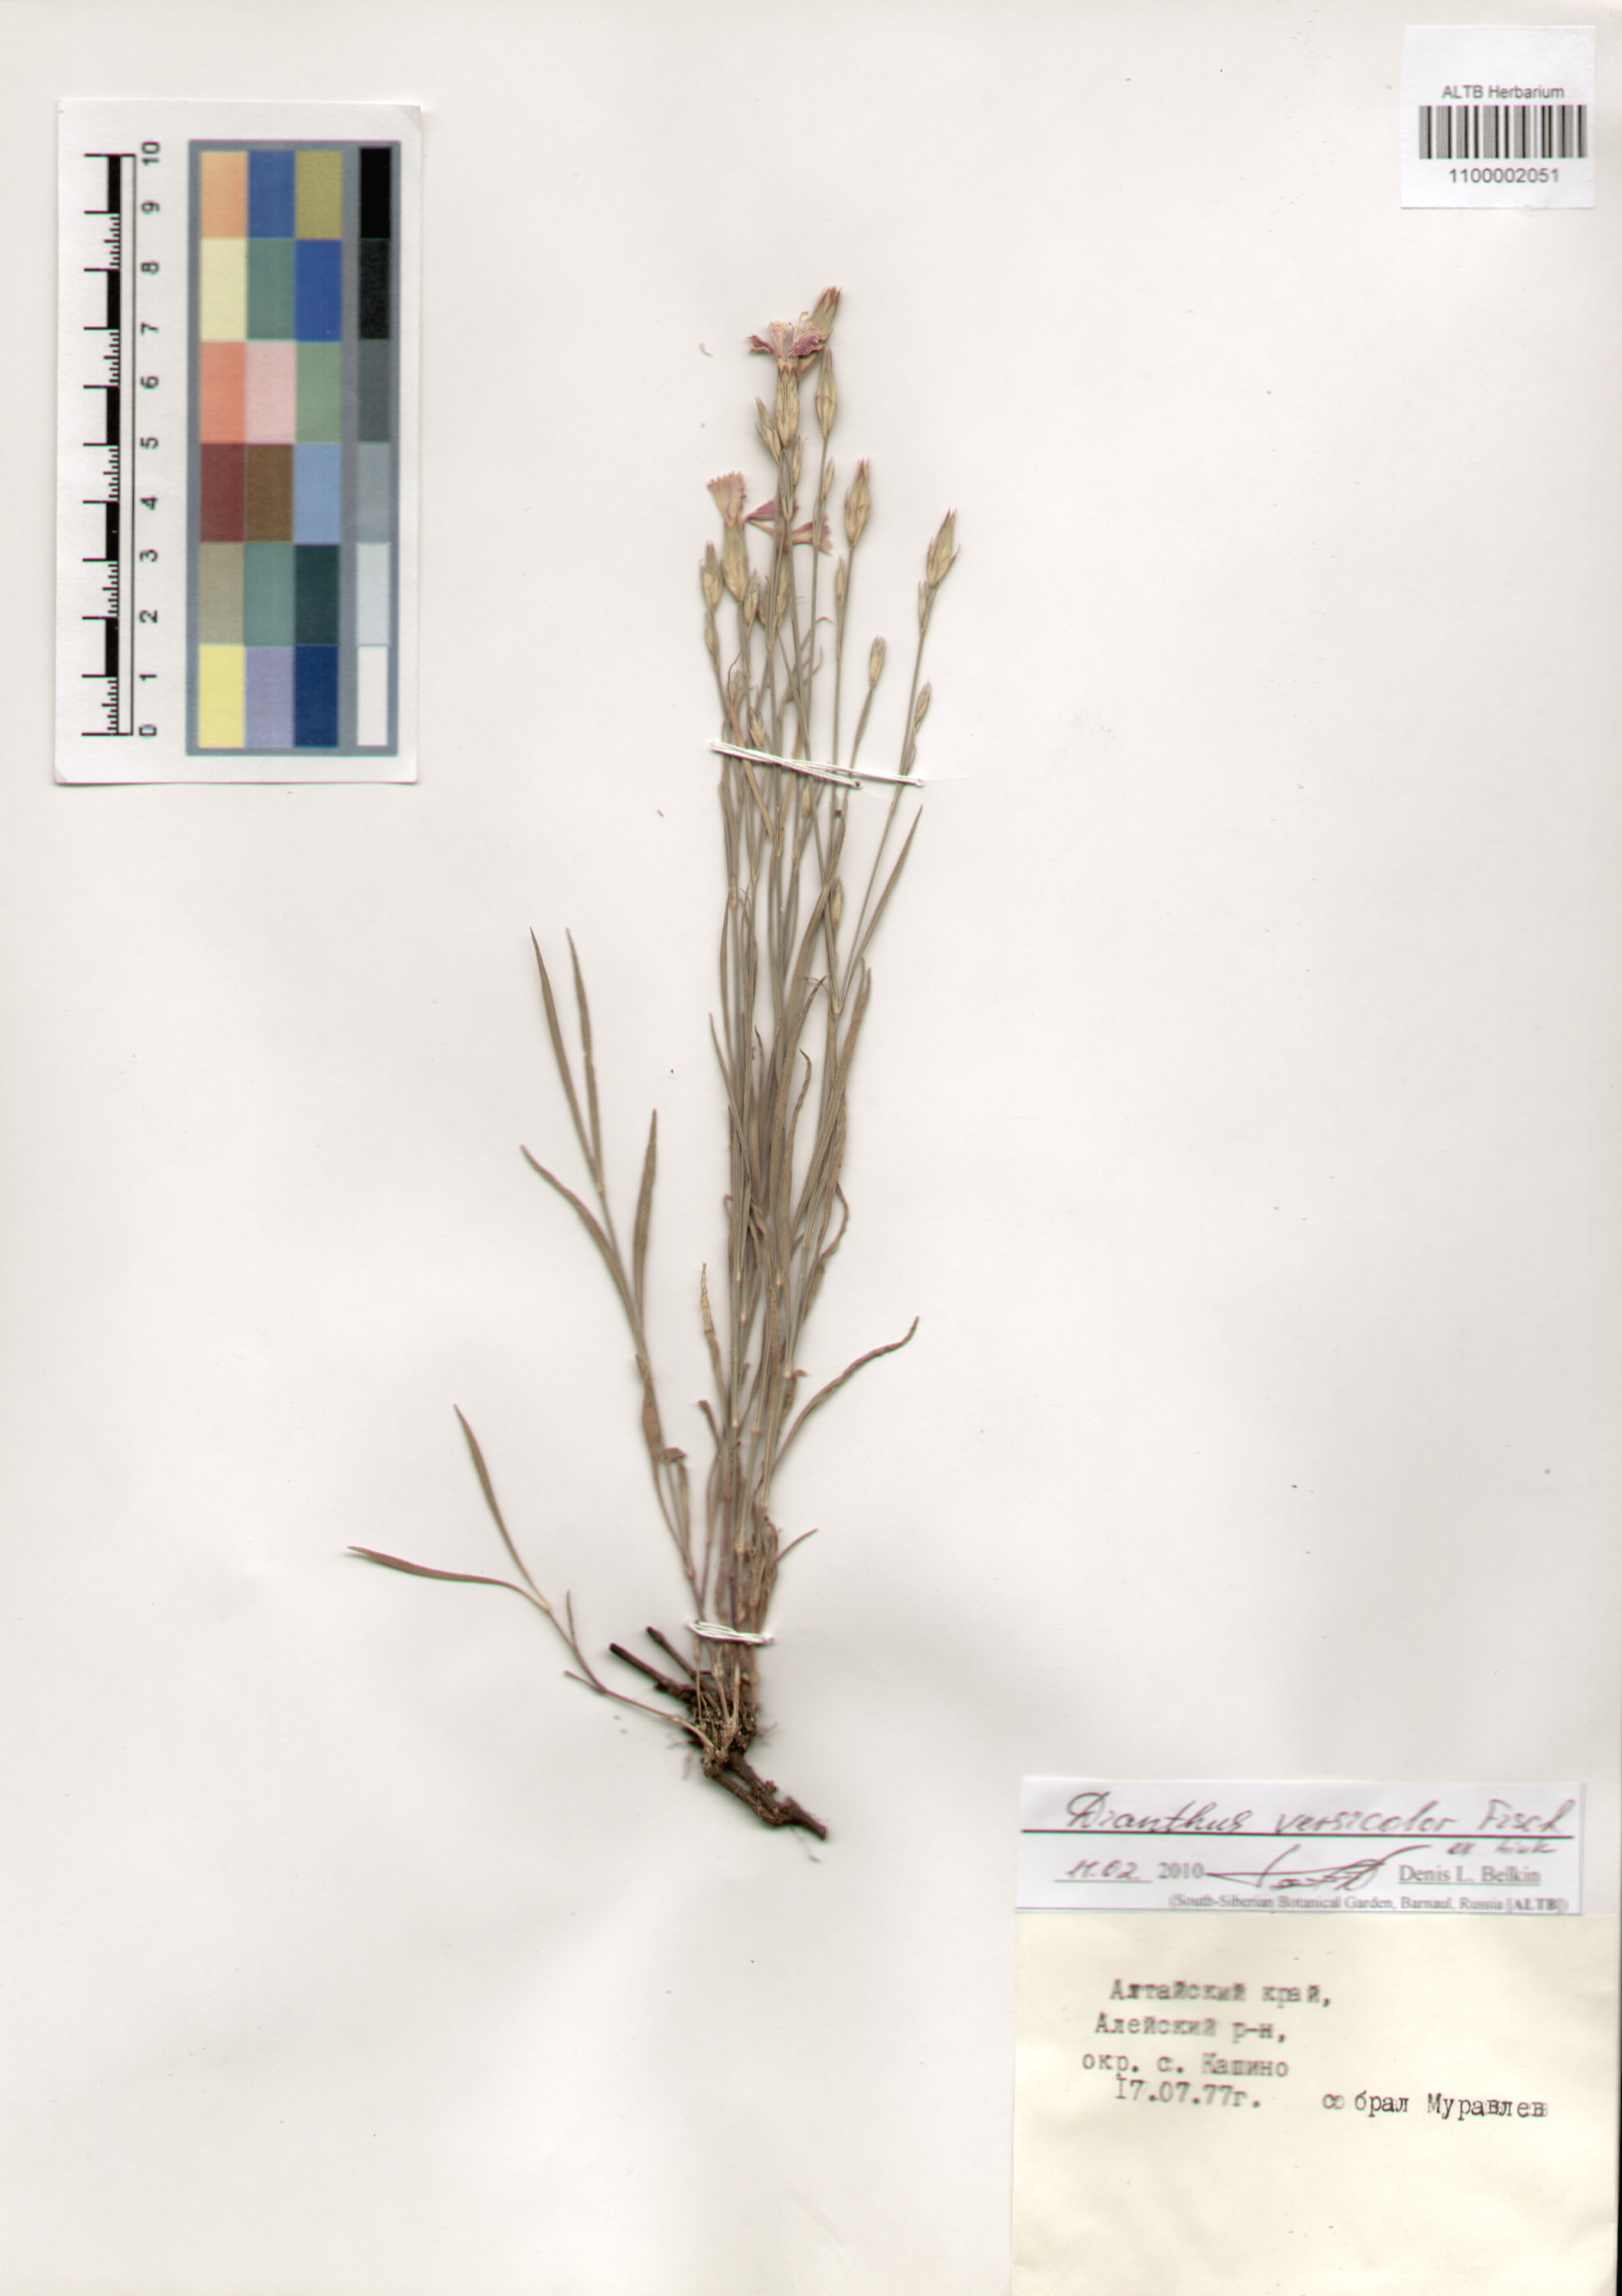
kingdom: Plantae
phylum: Tracheophyta
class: Magnoliopsida
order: Caryophyllales
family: Caryophyllaceae
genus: Dianthus
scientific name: Dianthus chinensis
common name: Rainbow pink
